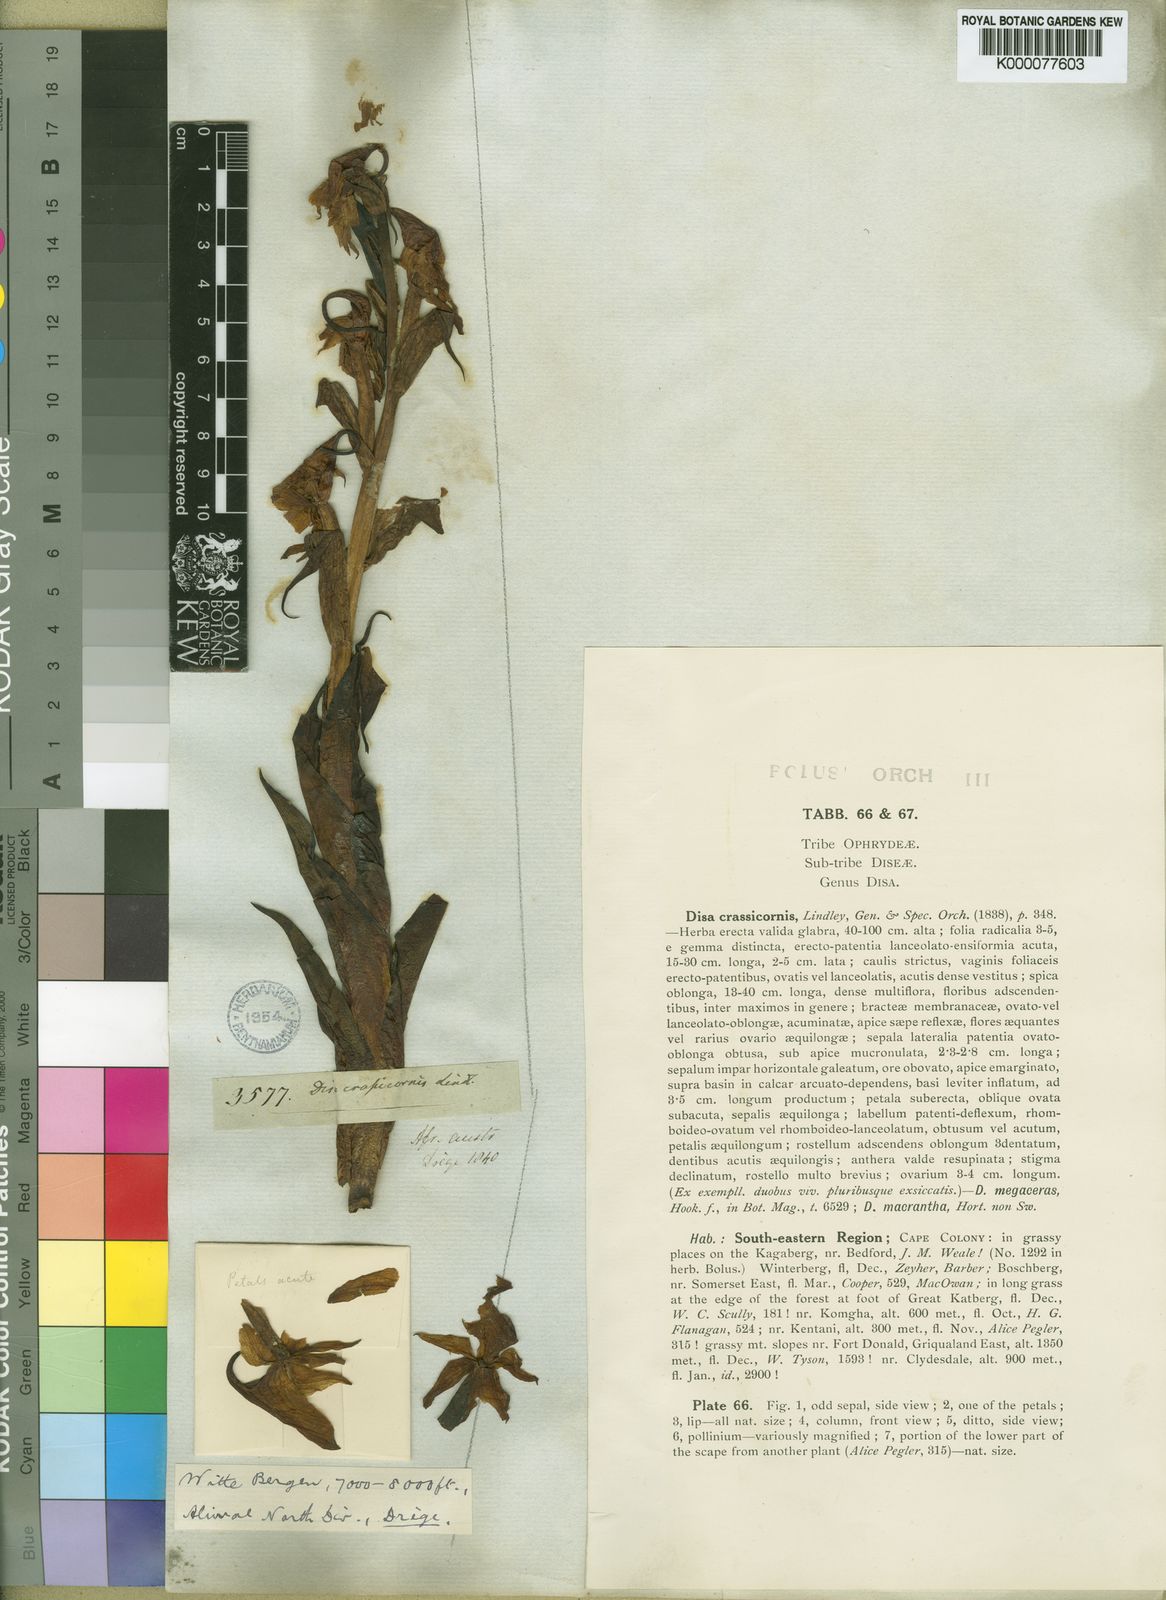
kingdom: Plantae
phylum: Tracheophyta
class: Liliopsida
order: Asparagales
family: Orchidaceae
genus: Disa
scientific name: Disa crassicornis
